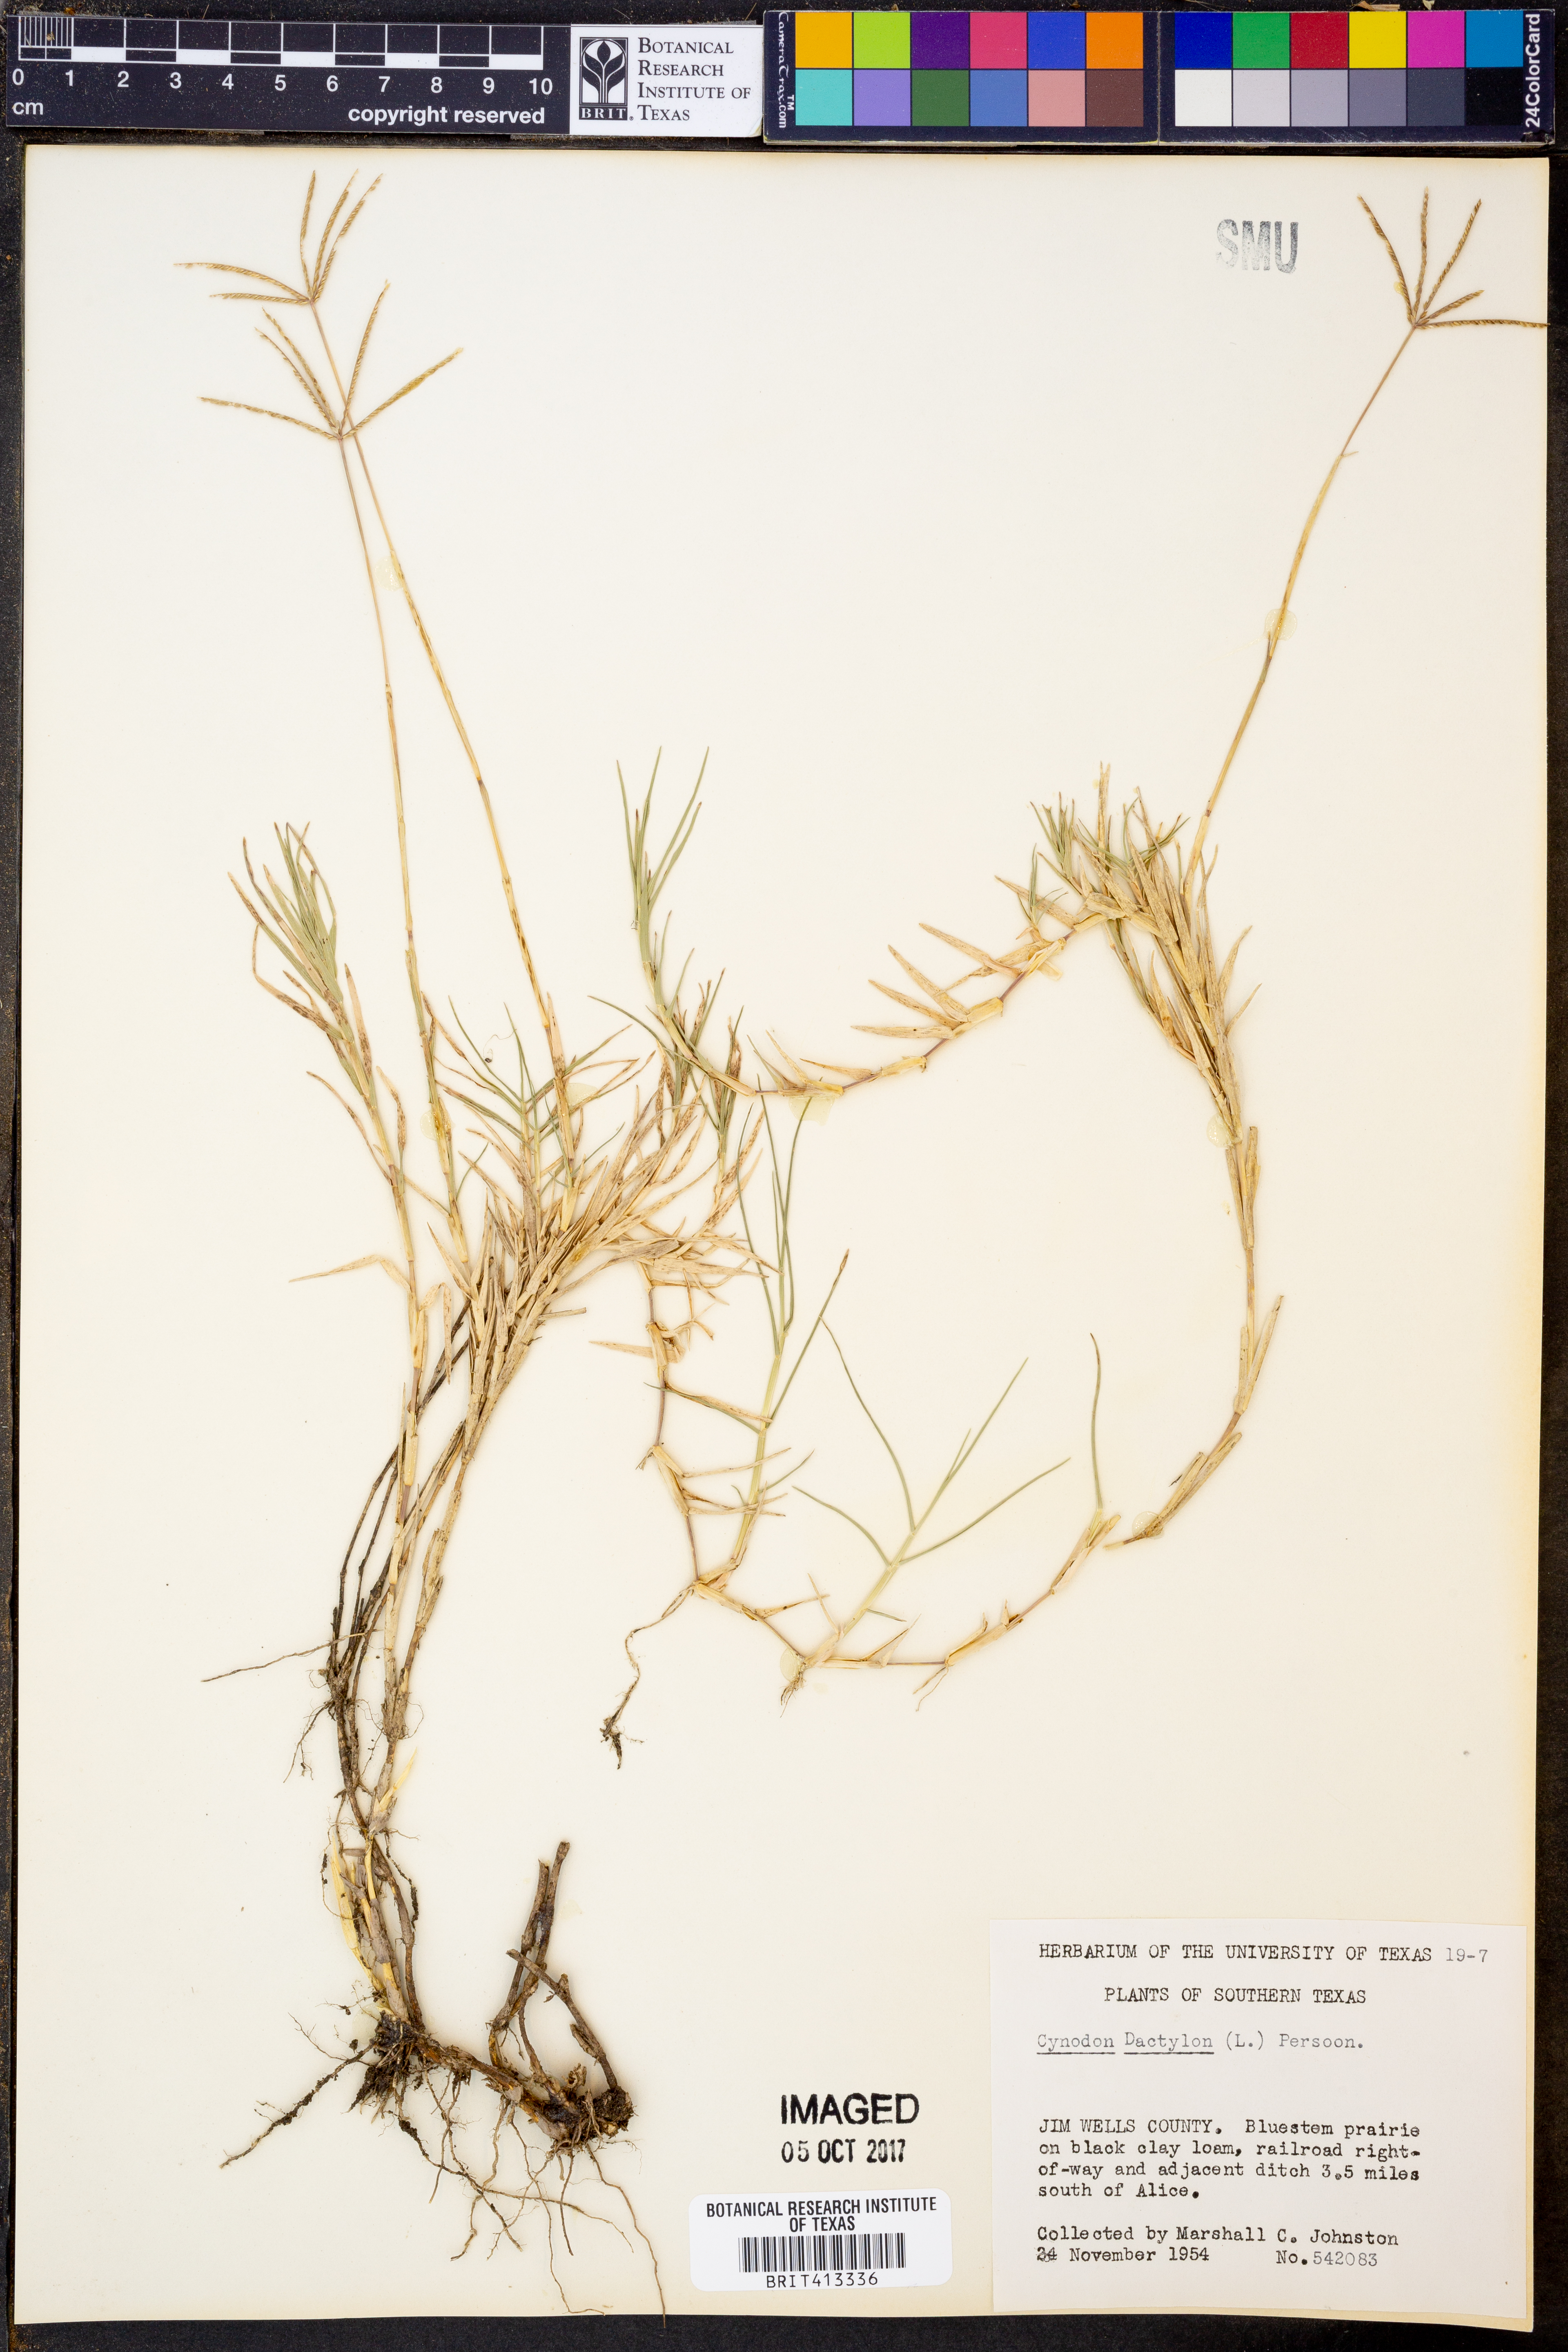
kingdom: Plantae
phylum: Tracheophyta
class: Liliopsida
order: Poales
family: Poaceae
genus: Cynodon
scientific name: Cynodon dactylon
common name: Bermuda grass
